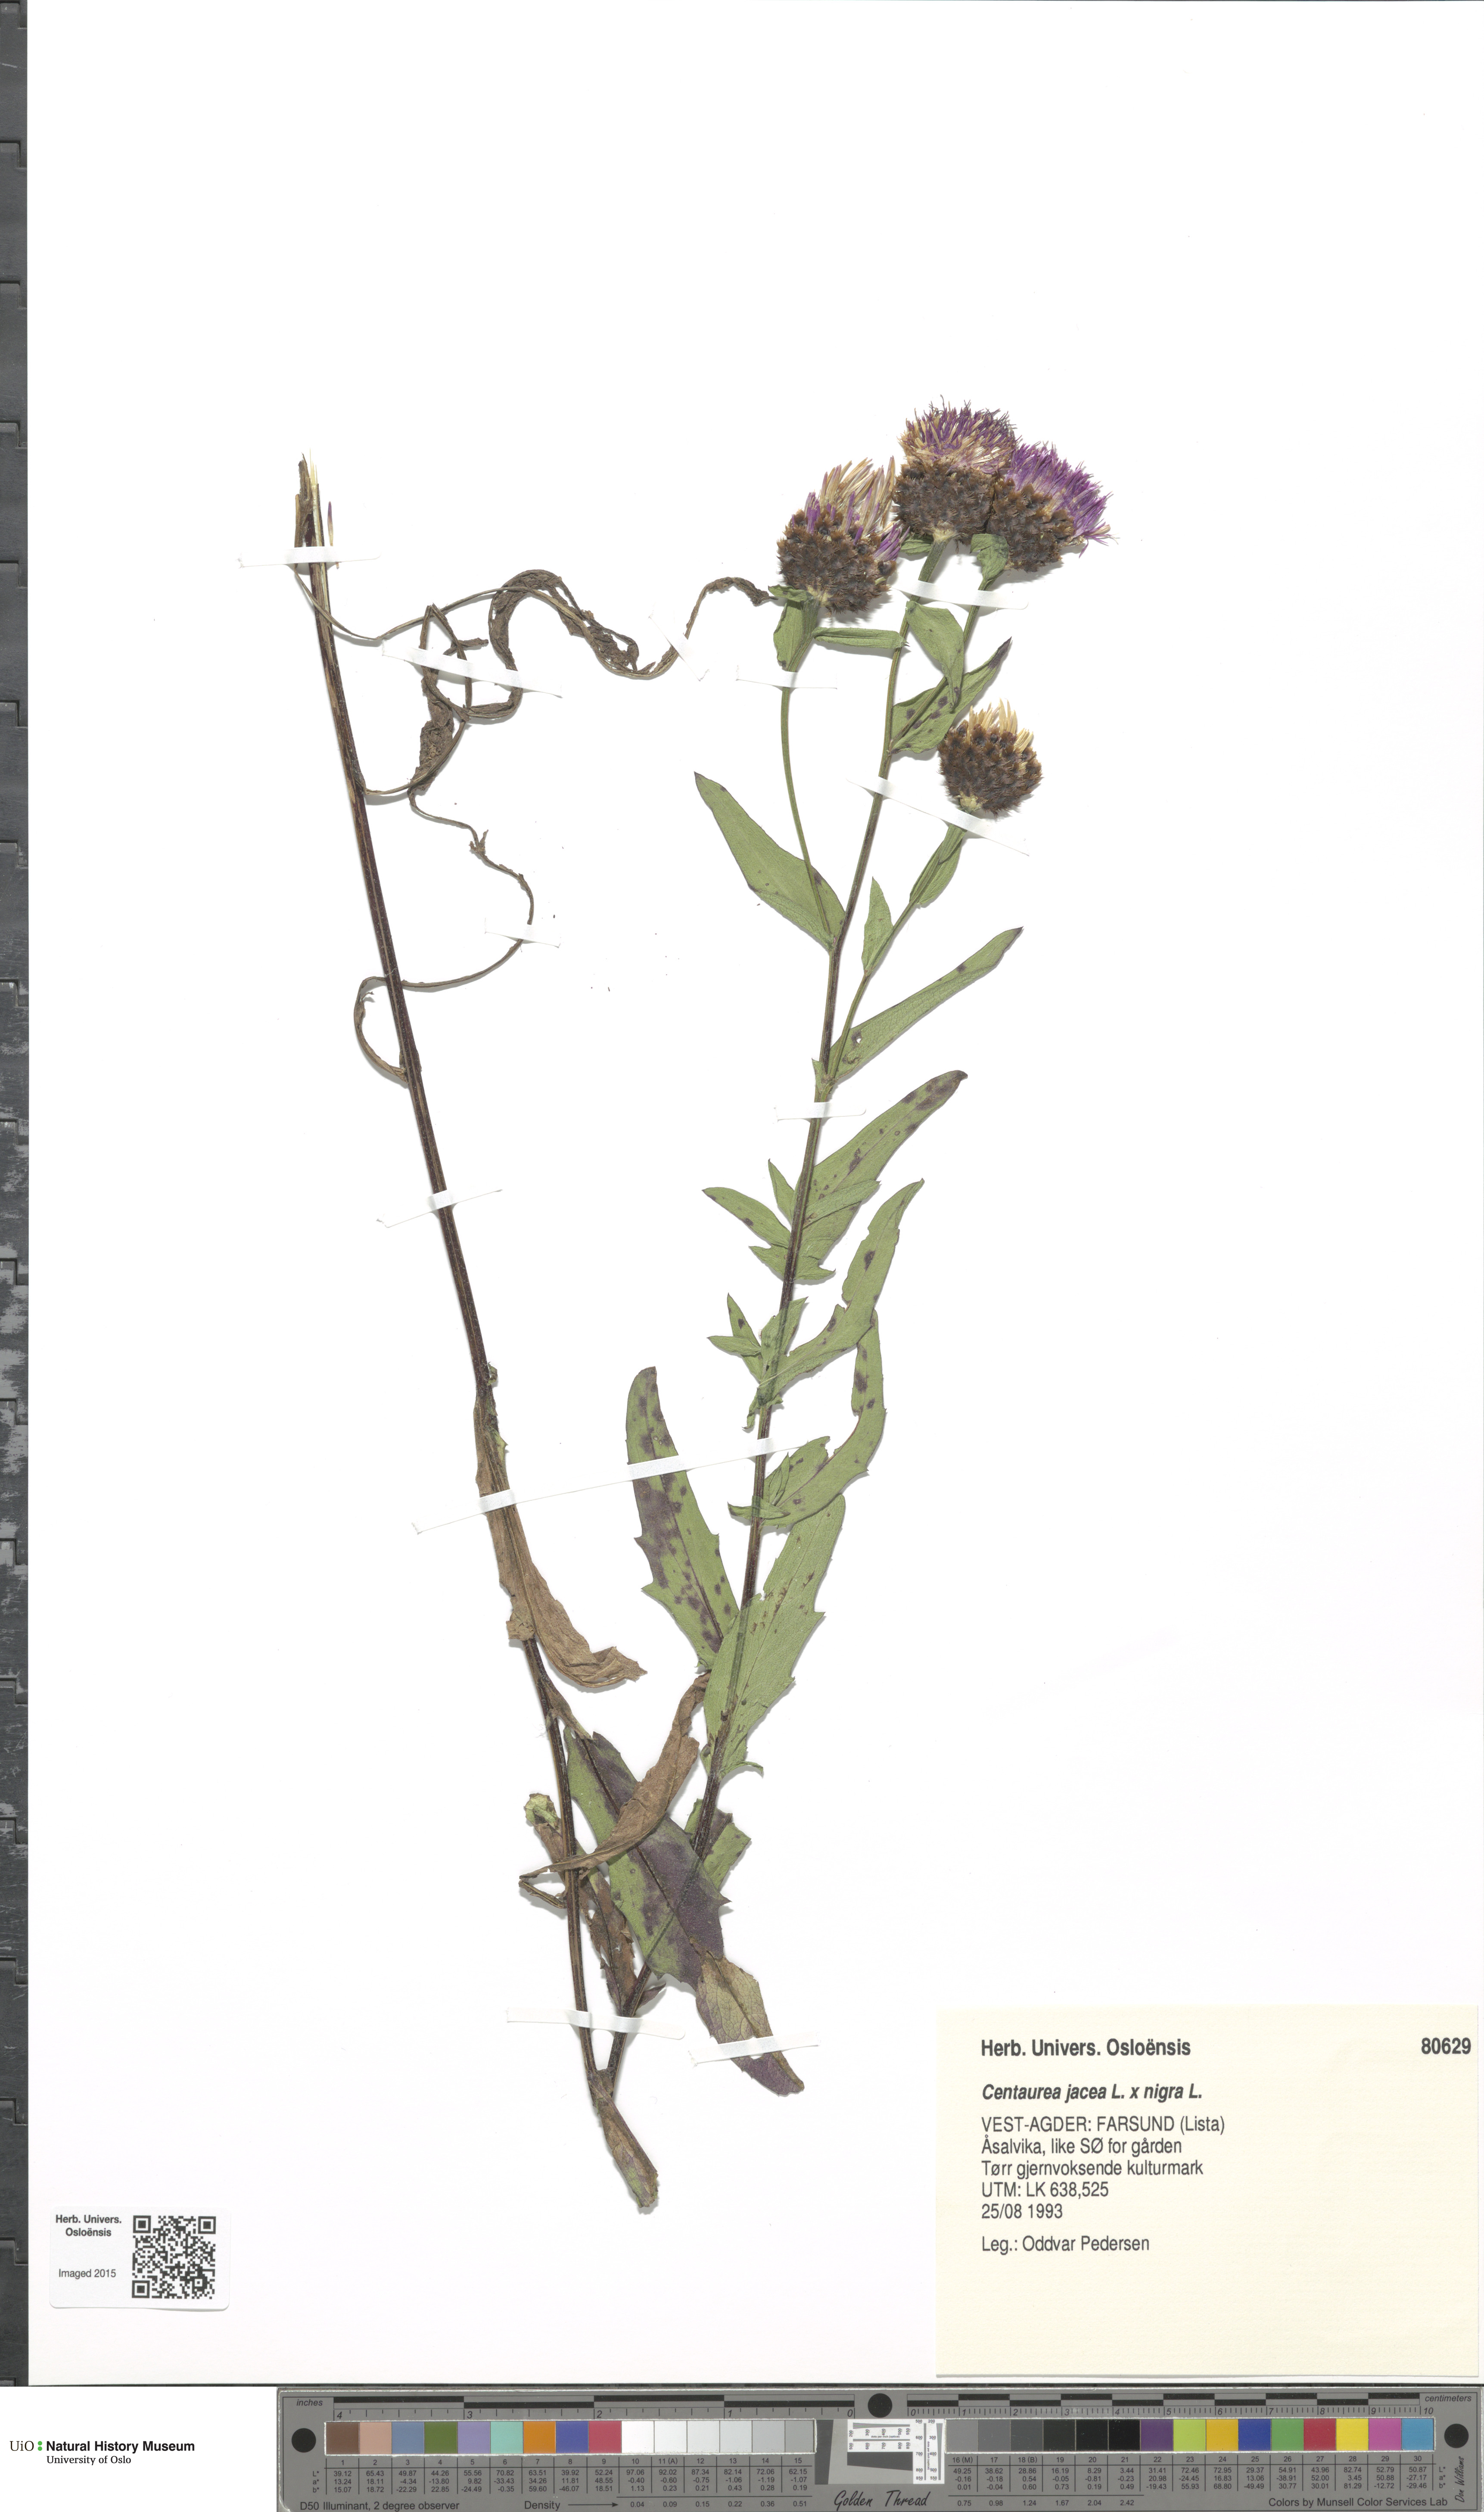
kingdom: Plantae
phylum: Tracheophyta
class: Magnoliopsida
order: Asterales
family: Asteraceae
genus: Centaurea
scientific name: Centaurea
